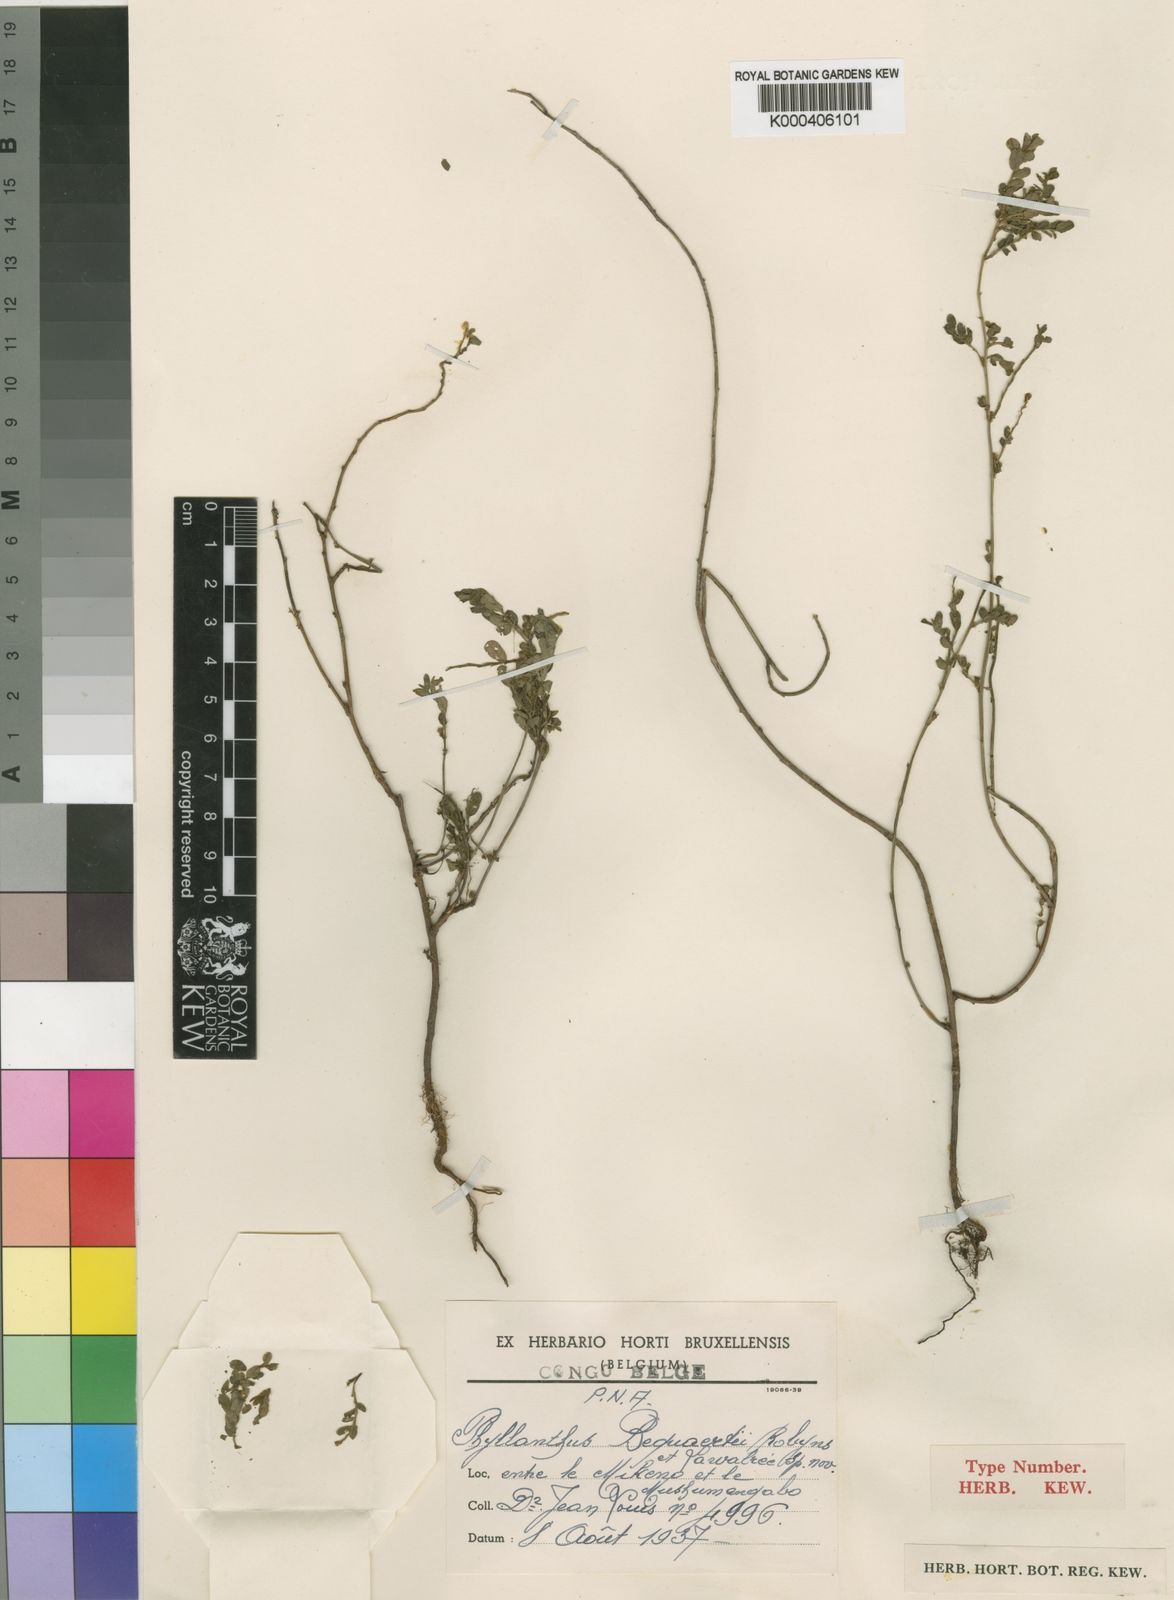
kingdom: Plantae
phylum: Tracheophyta
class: Magnoliopsida
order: Malpighiales
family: Phyllanthaceae
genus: Phyllanthus
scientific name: Phyllanthus
